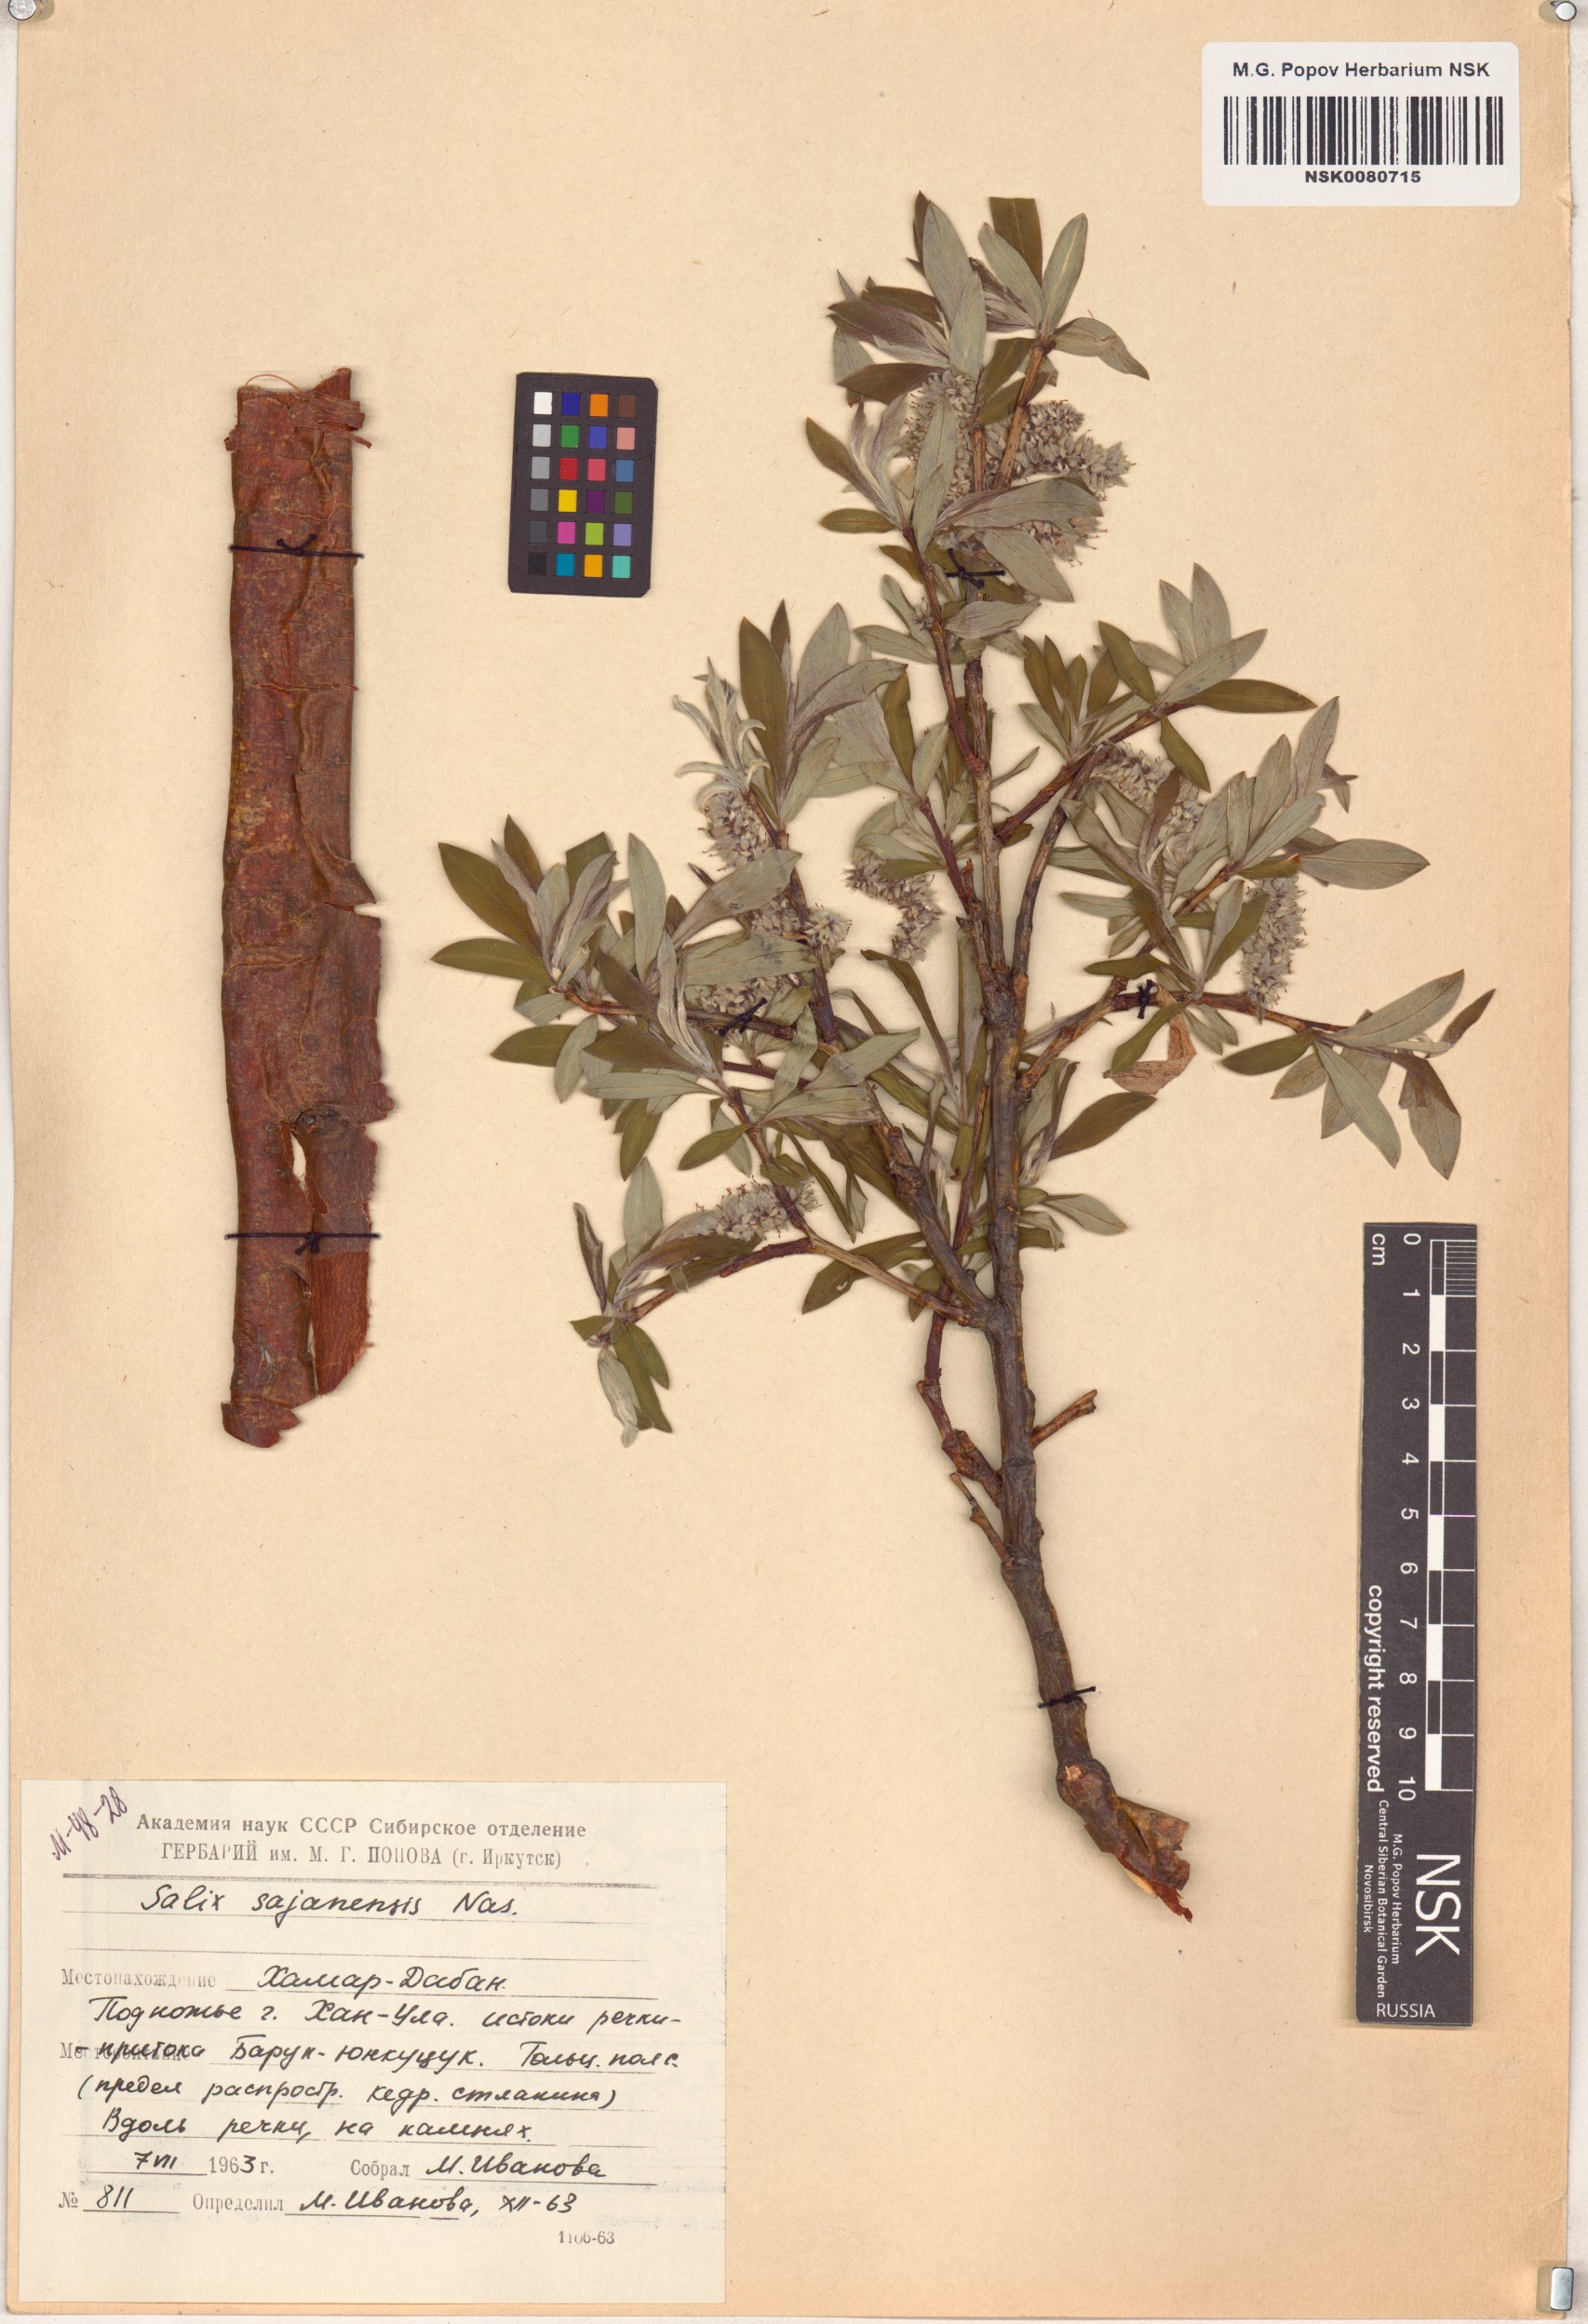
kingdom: Plantae
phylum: Tracheophyta
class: Magnoliopsida
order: Malpighiales
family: Salicaceae
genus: Salix
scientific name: Salix sajanensis
